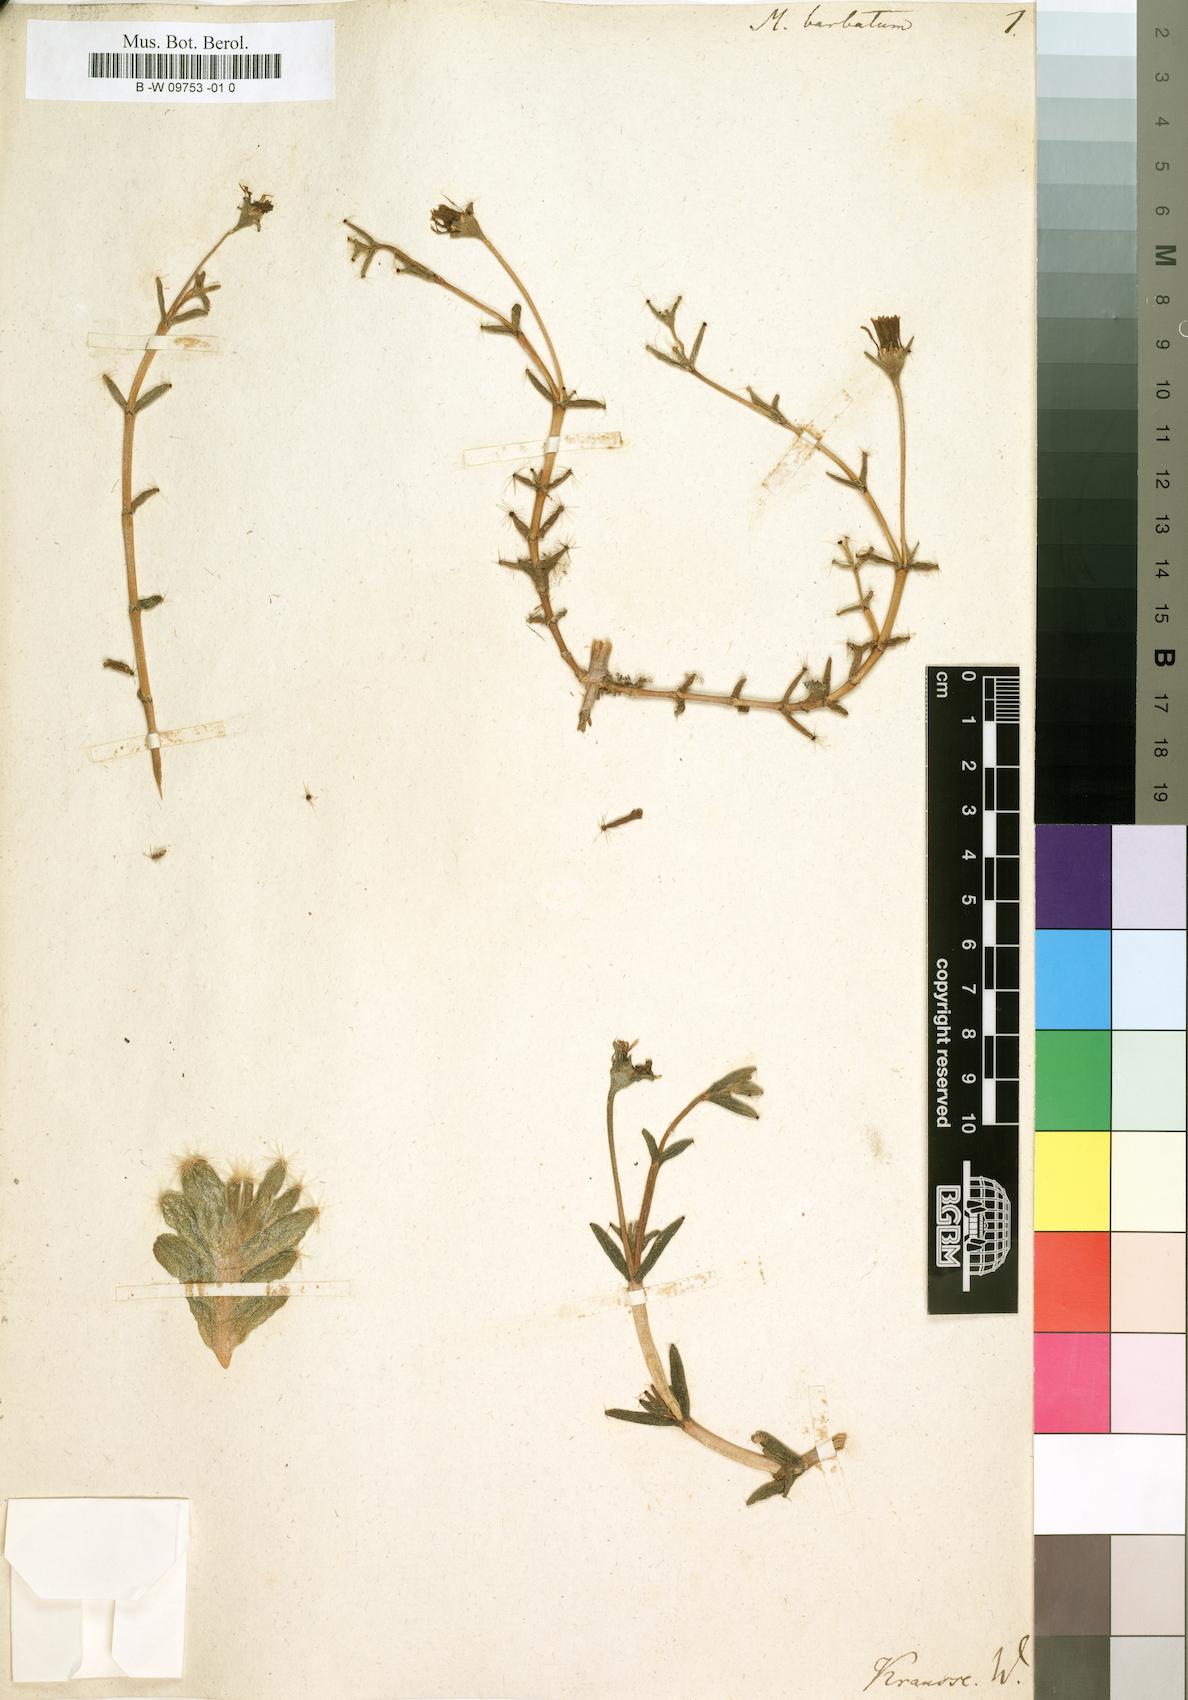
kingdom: Plantae
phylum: Tracheophyta
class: Magnoliopsida
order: Caryophyllales
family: Aizoaceae
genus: Trichodiadema
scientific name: Trichodiadema barbatum
